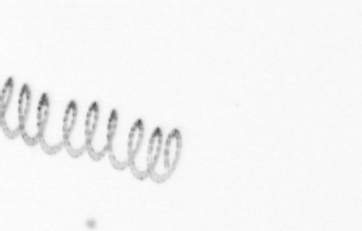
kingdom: Chromista
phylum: Ochrophyta
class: Bacillariophyceae
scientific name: Bacillariophyceae
